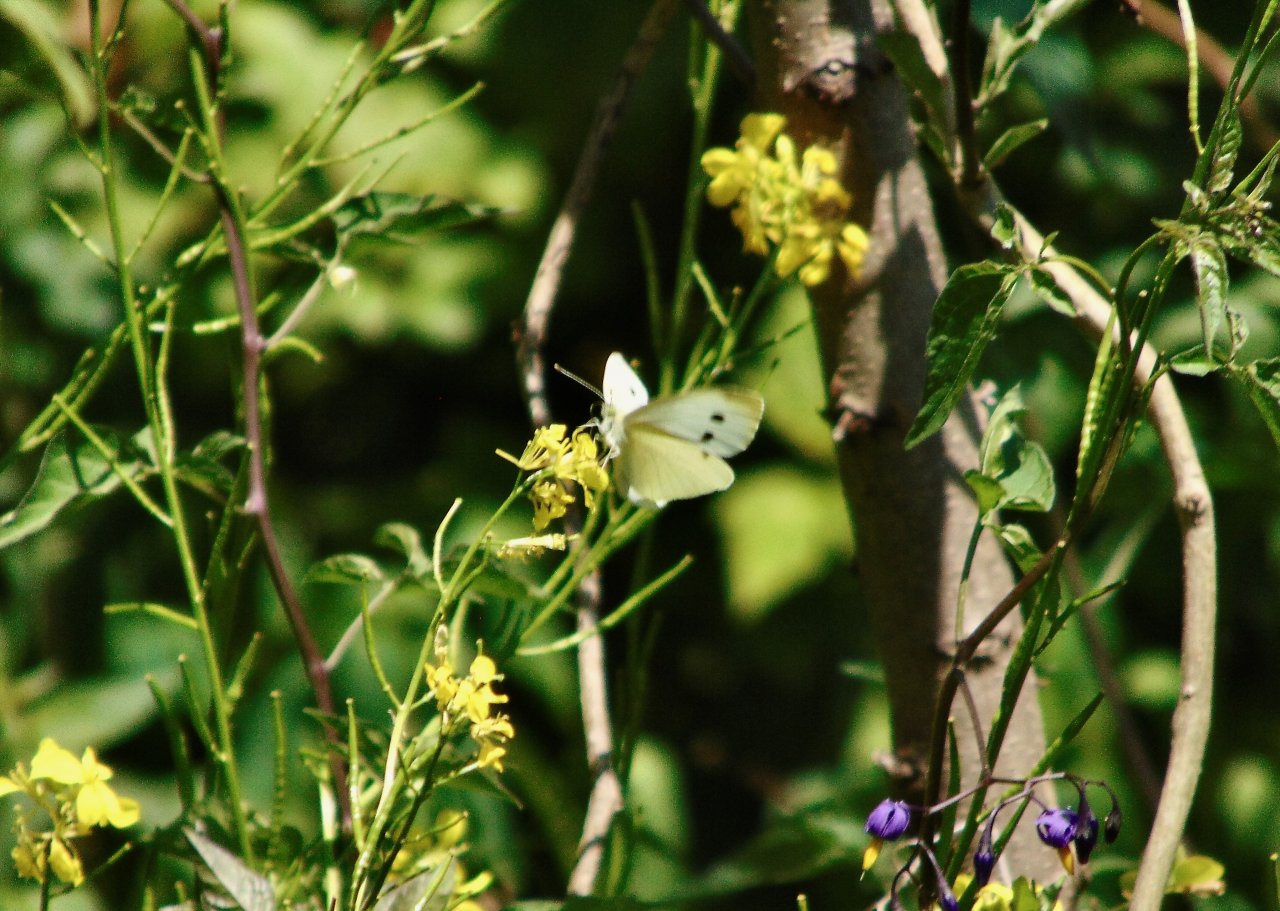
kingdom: Animalia
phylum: Arthropoda
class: Insecta
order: Lepidoptera
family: Pieridae
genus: Pieris
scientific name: Pieris rapae
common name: Cabbage White
